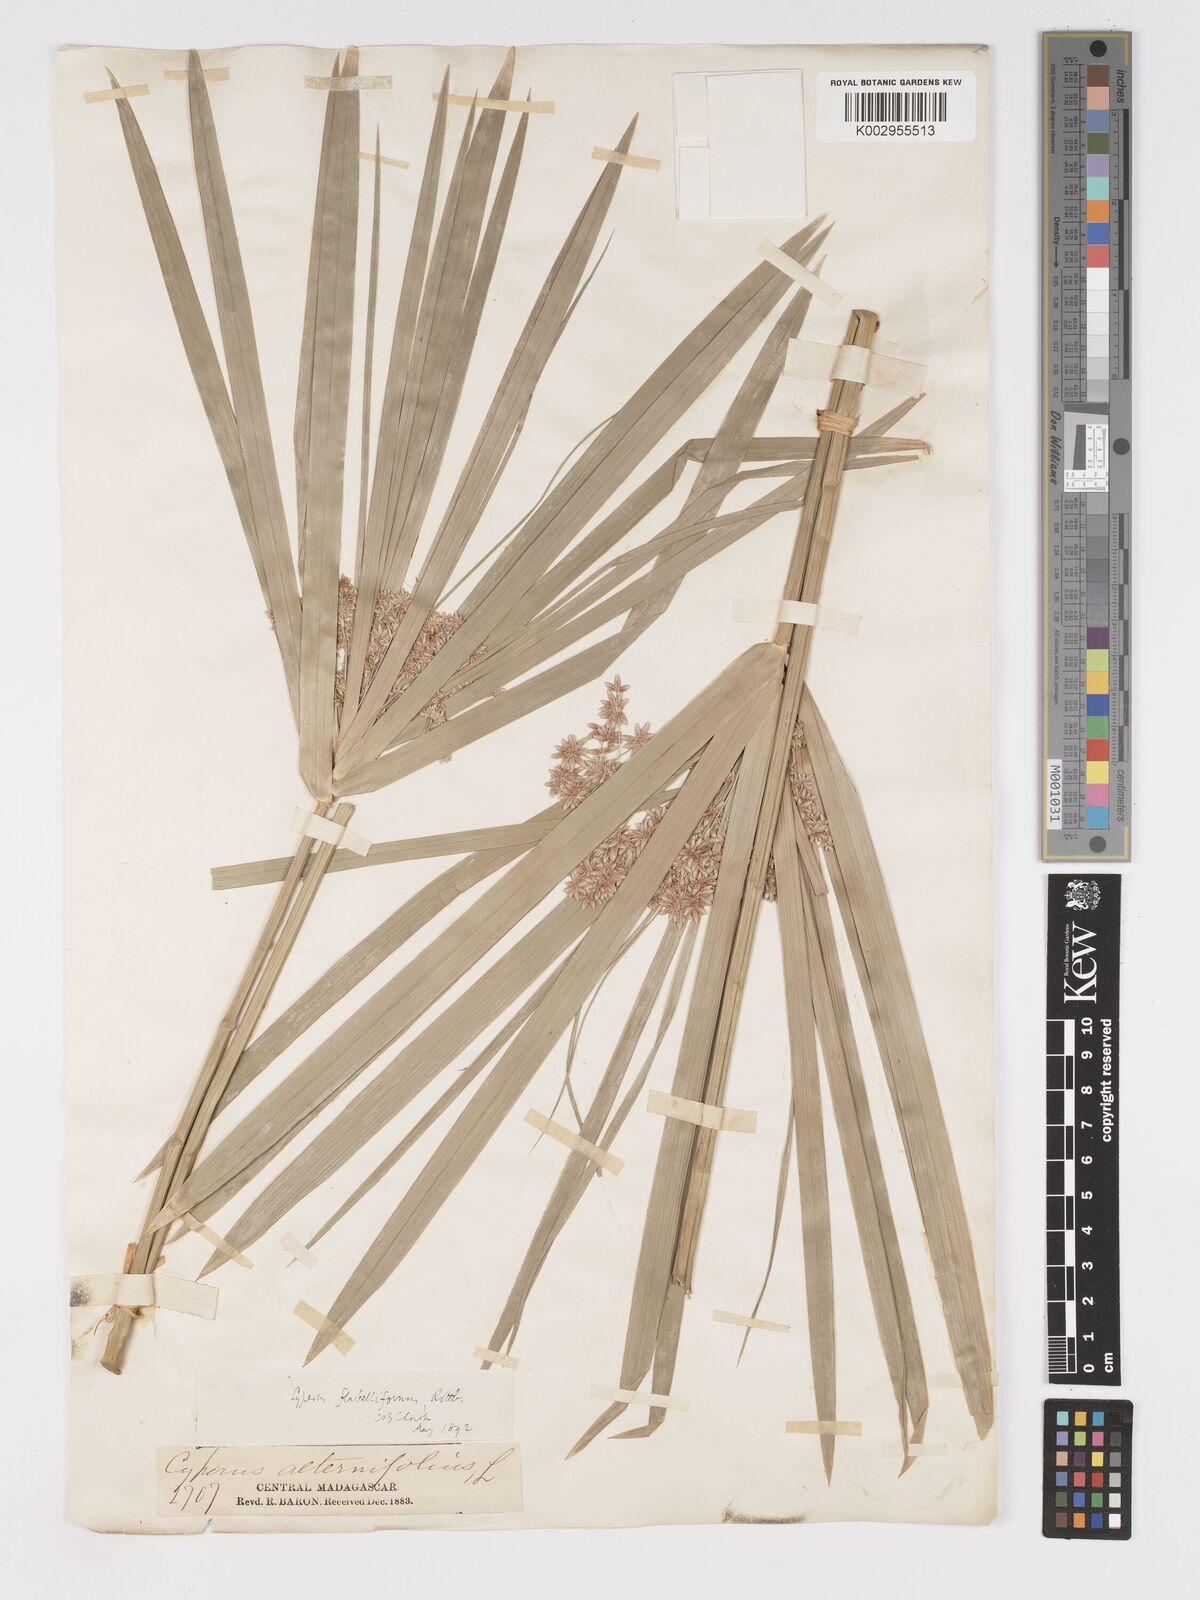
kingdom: Plantae
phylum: Tracheophyta
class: Liliopsida
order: Poales
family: Cyperaceae
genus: Cyperus
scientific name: Cyperus alternifolius
